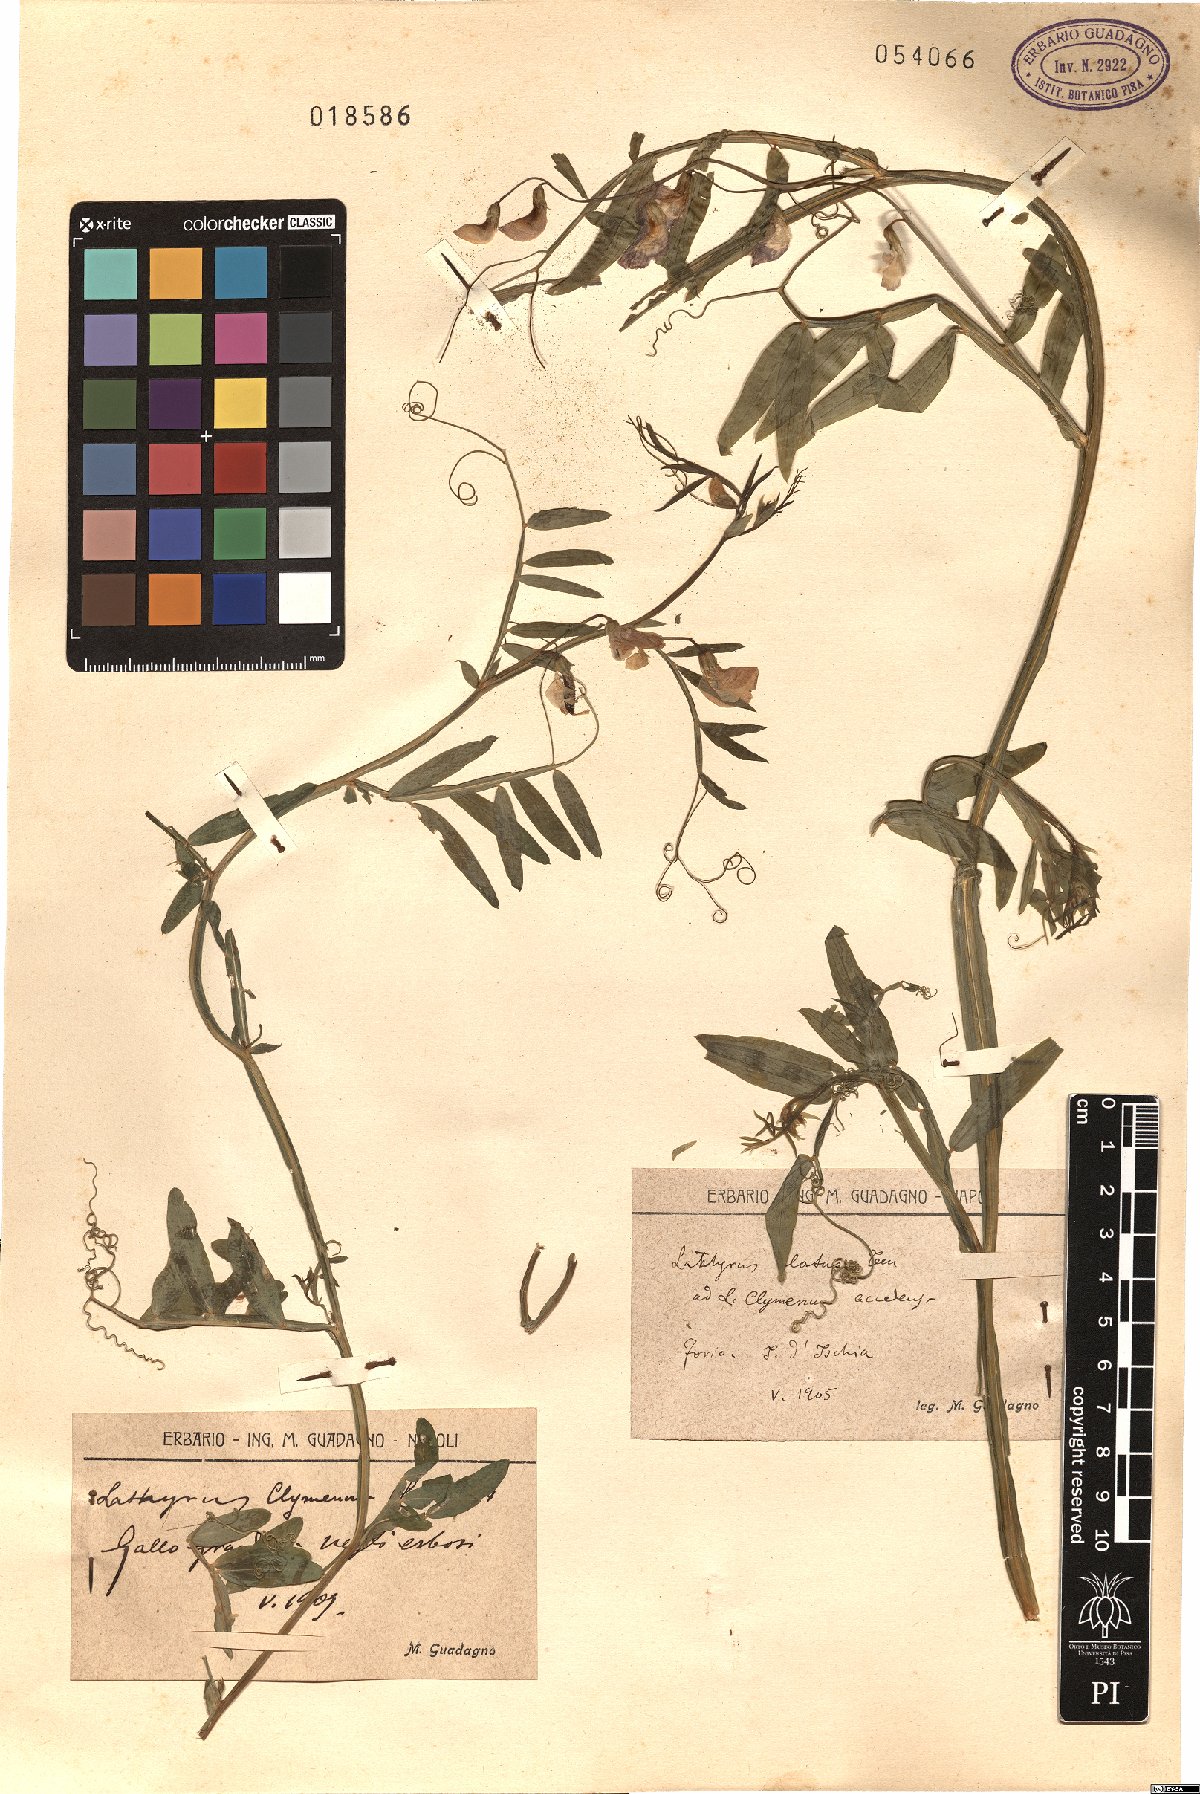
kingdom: Plantae
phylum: Tracheophyta
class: Magnoliopsida
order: Fabales
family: Fabaceae
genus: Lathyrus
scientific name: Lathyrus komarovii
